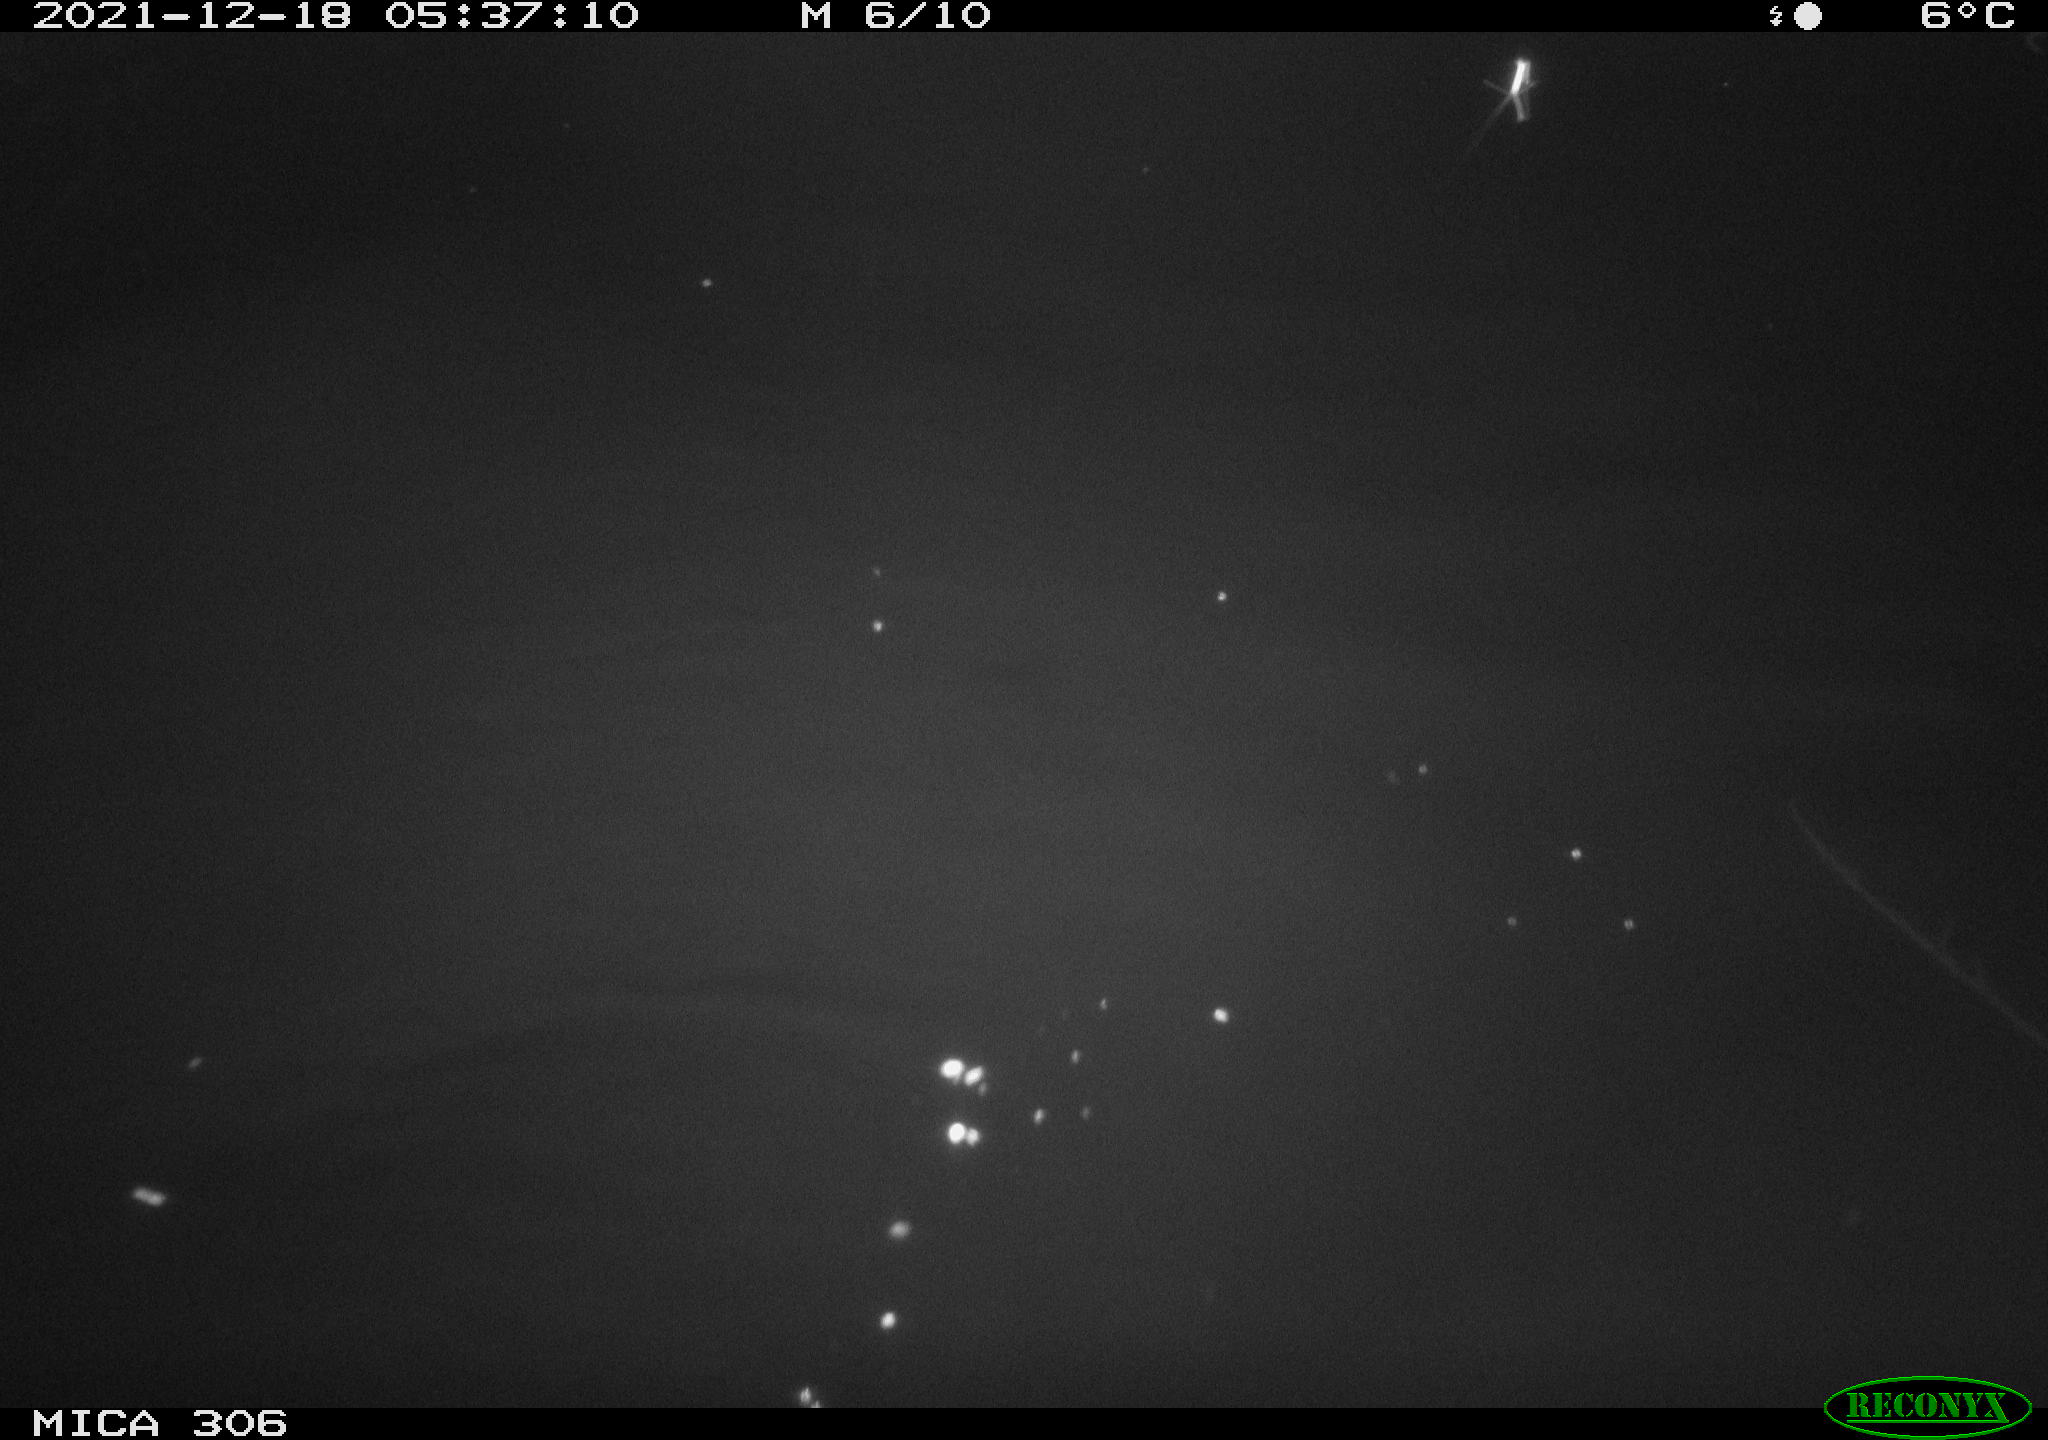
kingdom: Animalia
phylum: Chordata
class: Mammalia
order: Rodentia
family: Cricetidae
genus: Ondatra
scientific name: Ondatra zibethicus
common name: Muskrat
